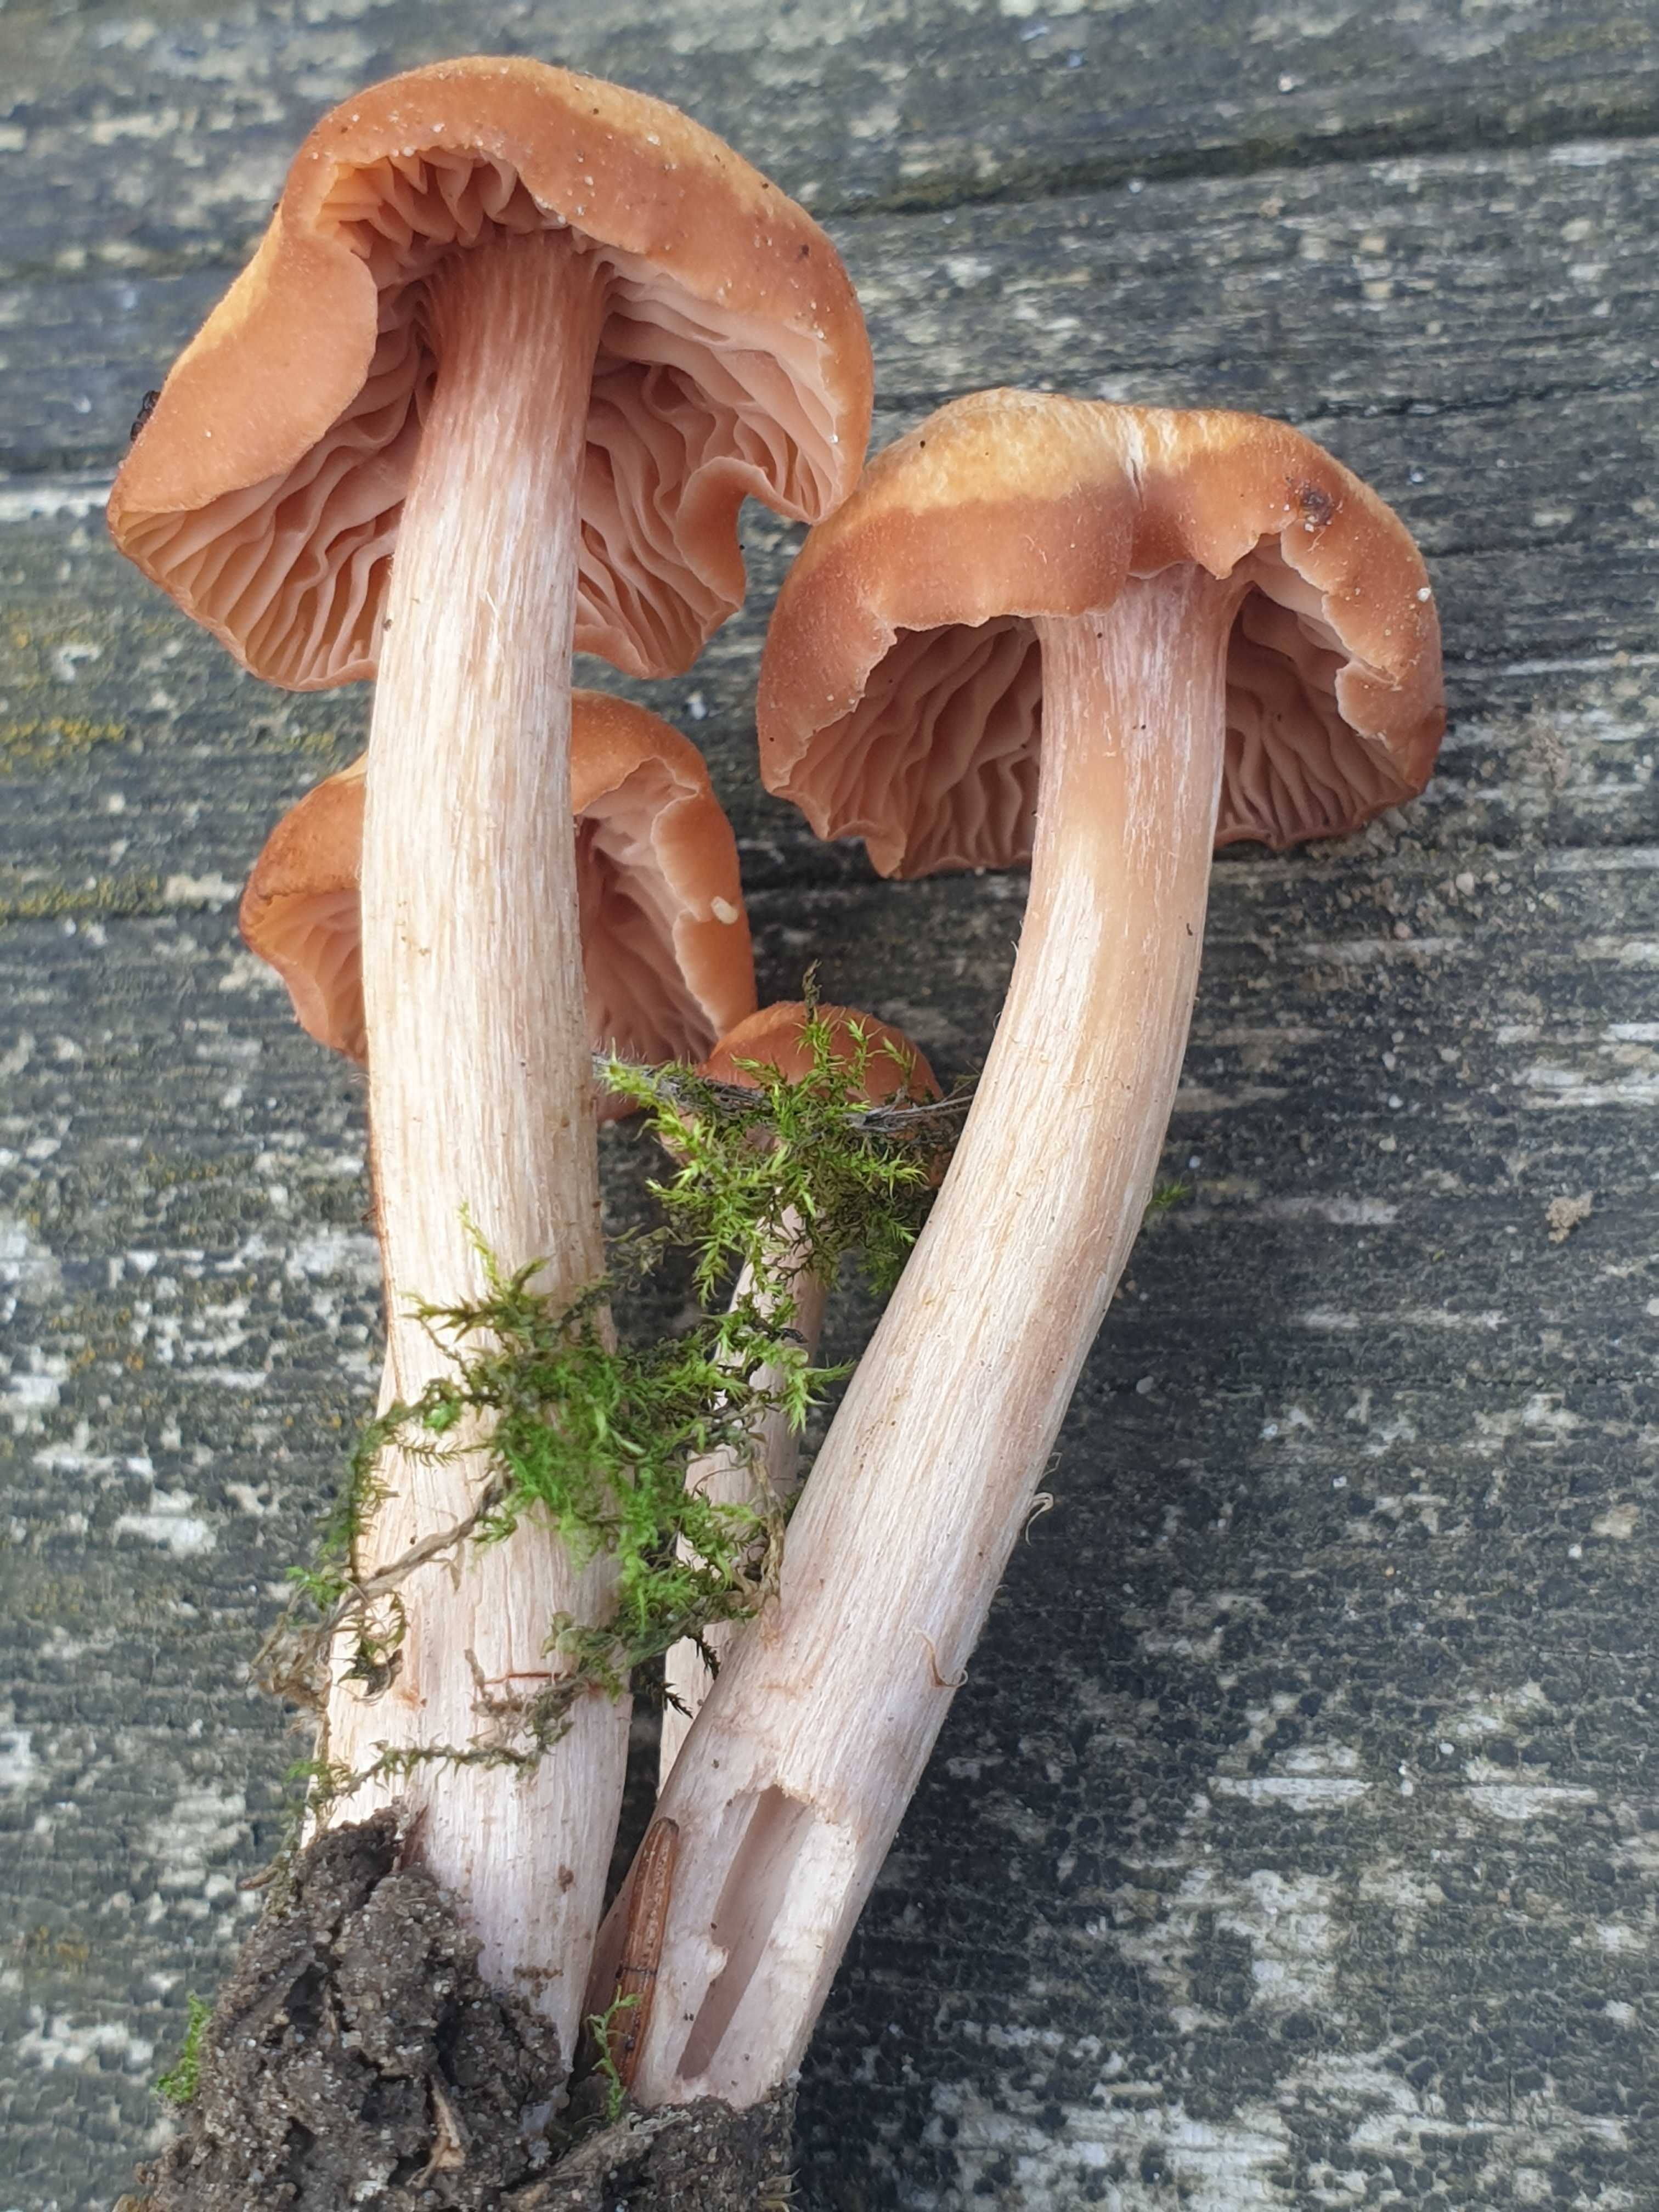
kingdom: Fungi
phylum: Basidiomycota
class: Agaricomycetes
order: Agaricales
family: Hydnangiaceae
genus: Laccaria
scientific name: Laccaria laccata
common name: rød ametysthat
